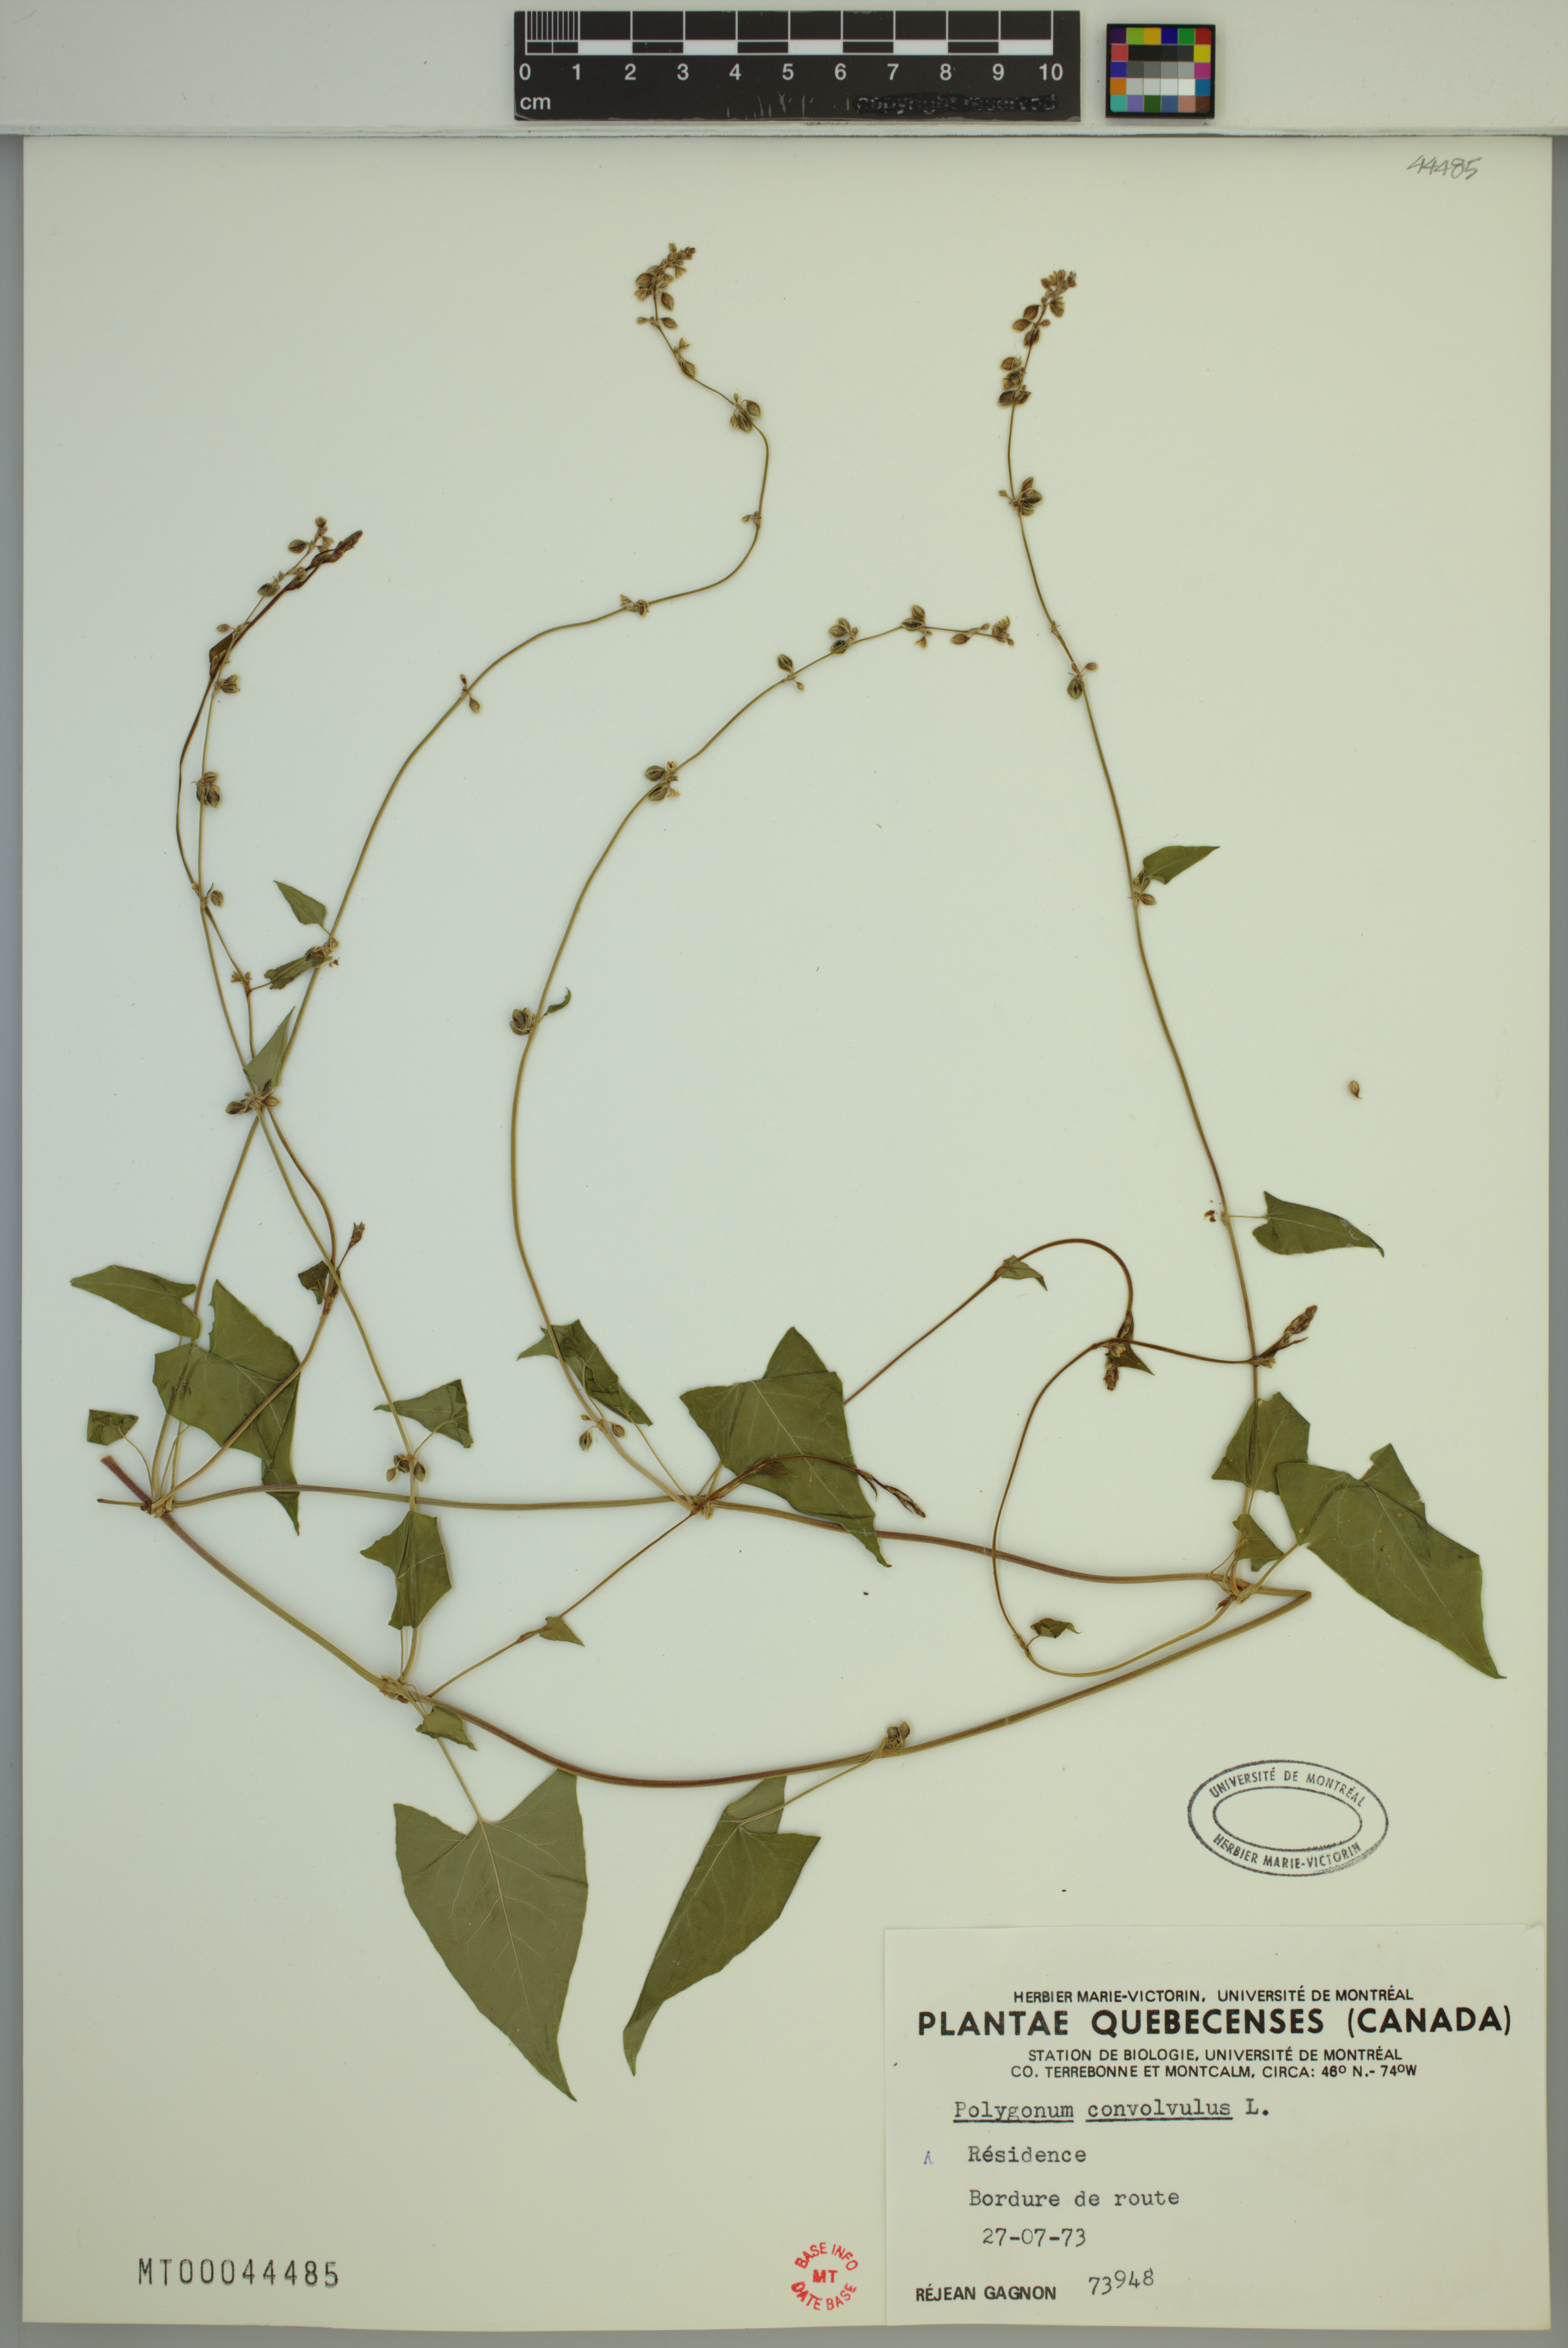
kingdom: Plantae
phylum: Tracheophyta
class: Magnoliopsida
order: Caryophyllales
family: Polygonaceae
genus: Fallopia
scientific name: Fallopia convolvulus
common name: Black bindweed
